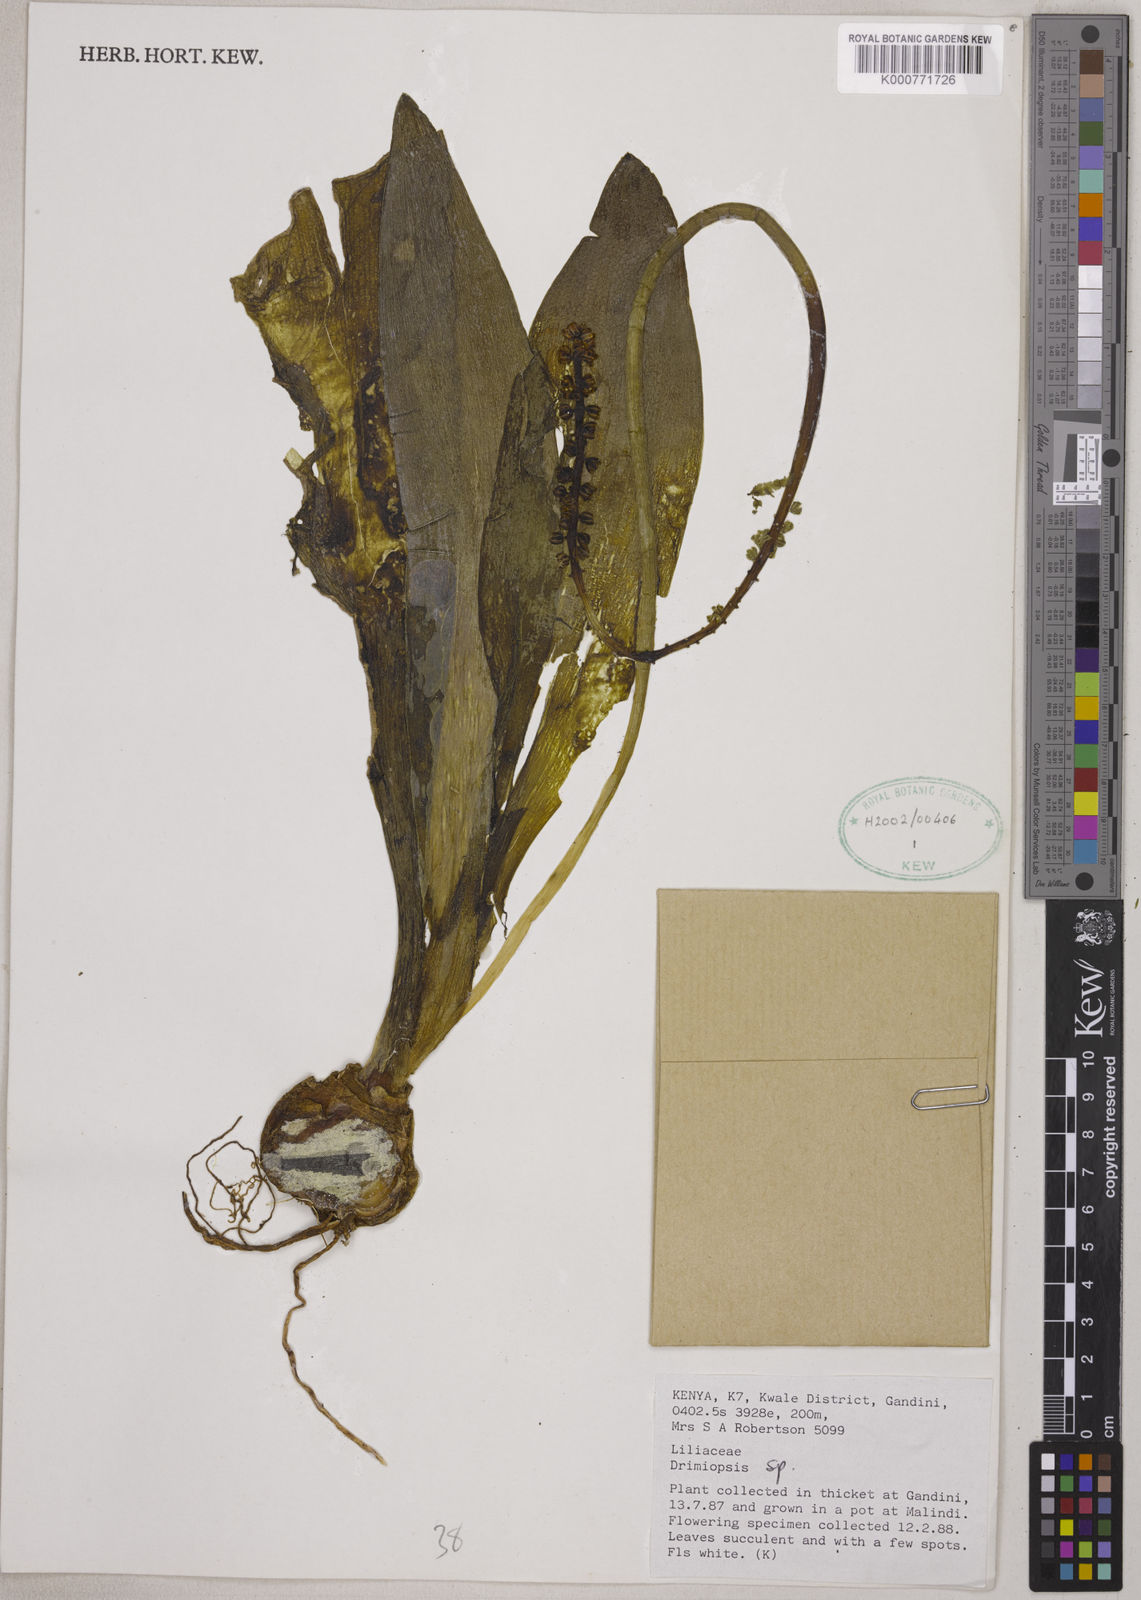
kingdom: Plantae
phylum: Tracheophyta
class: Liliopsida
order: Asparagales
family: Asparagaceae
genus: Drimiopsis
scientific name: Drimiopsis
